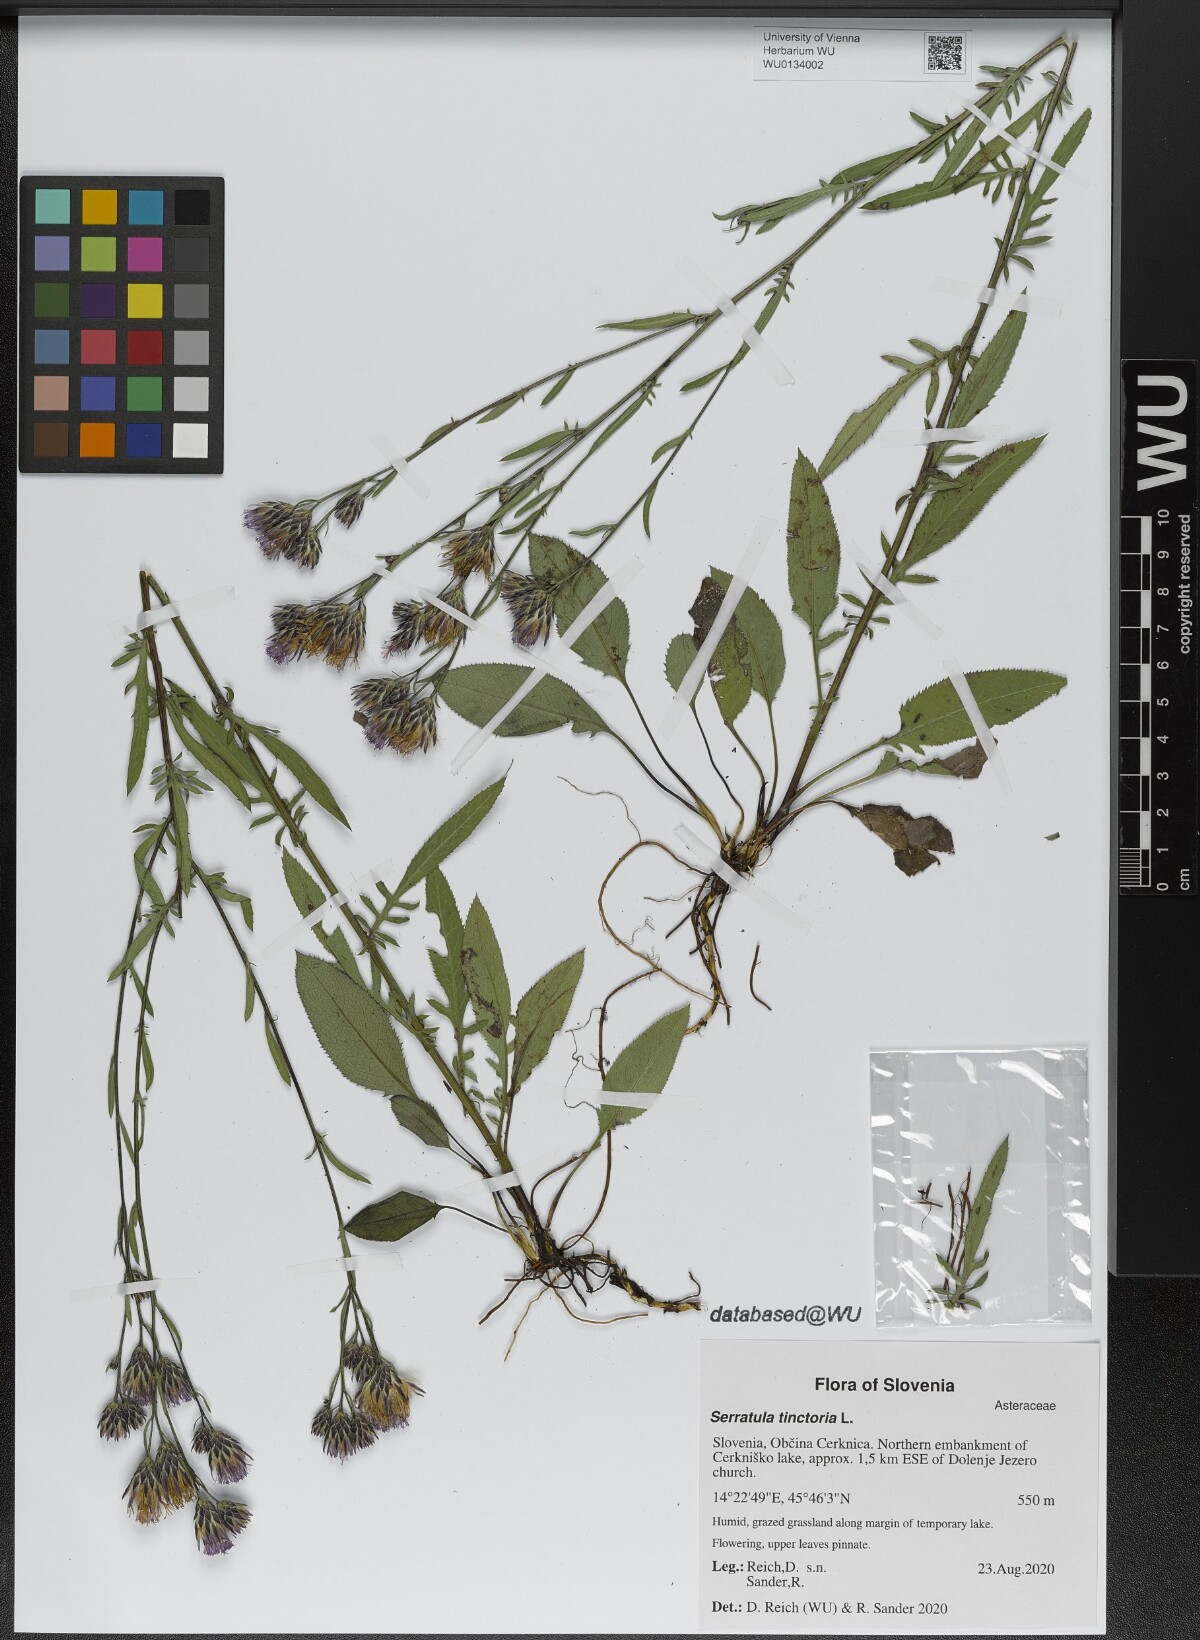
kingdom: Plantae
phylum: Tracheophyta
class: Magnoliopsida
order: Asterales
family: Asteraceae
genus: Serratula
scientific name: Serratula tinctoria
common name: Saw-wort
